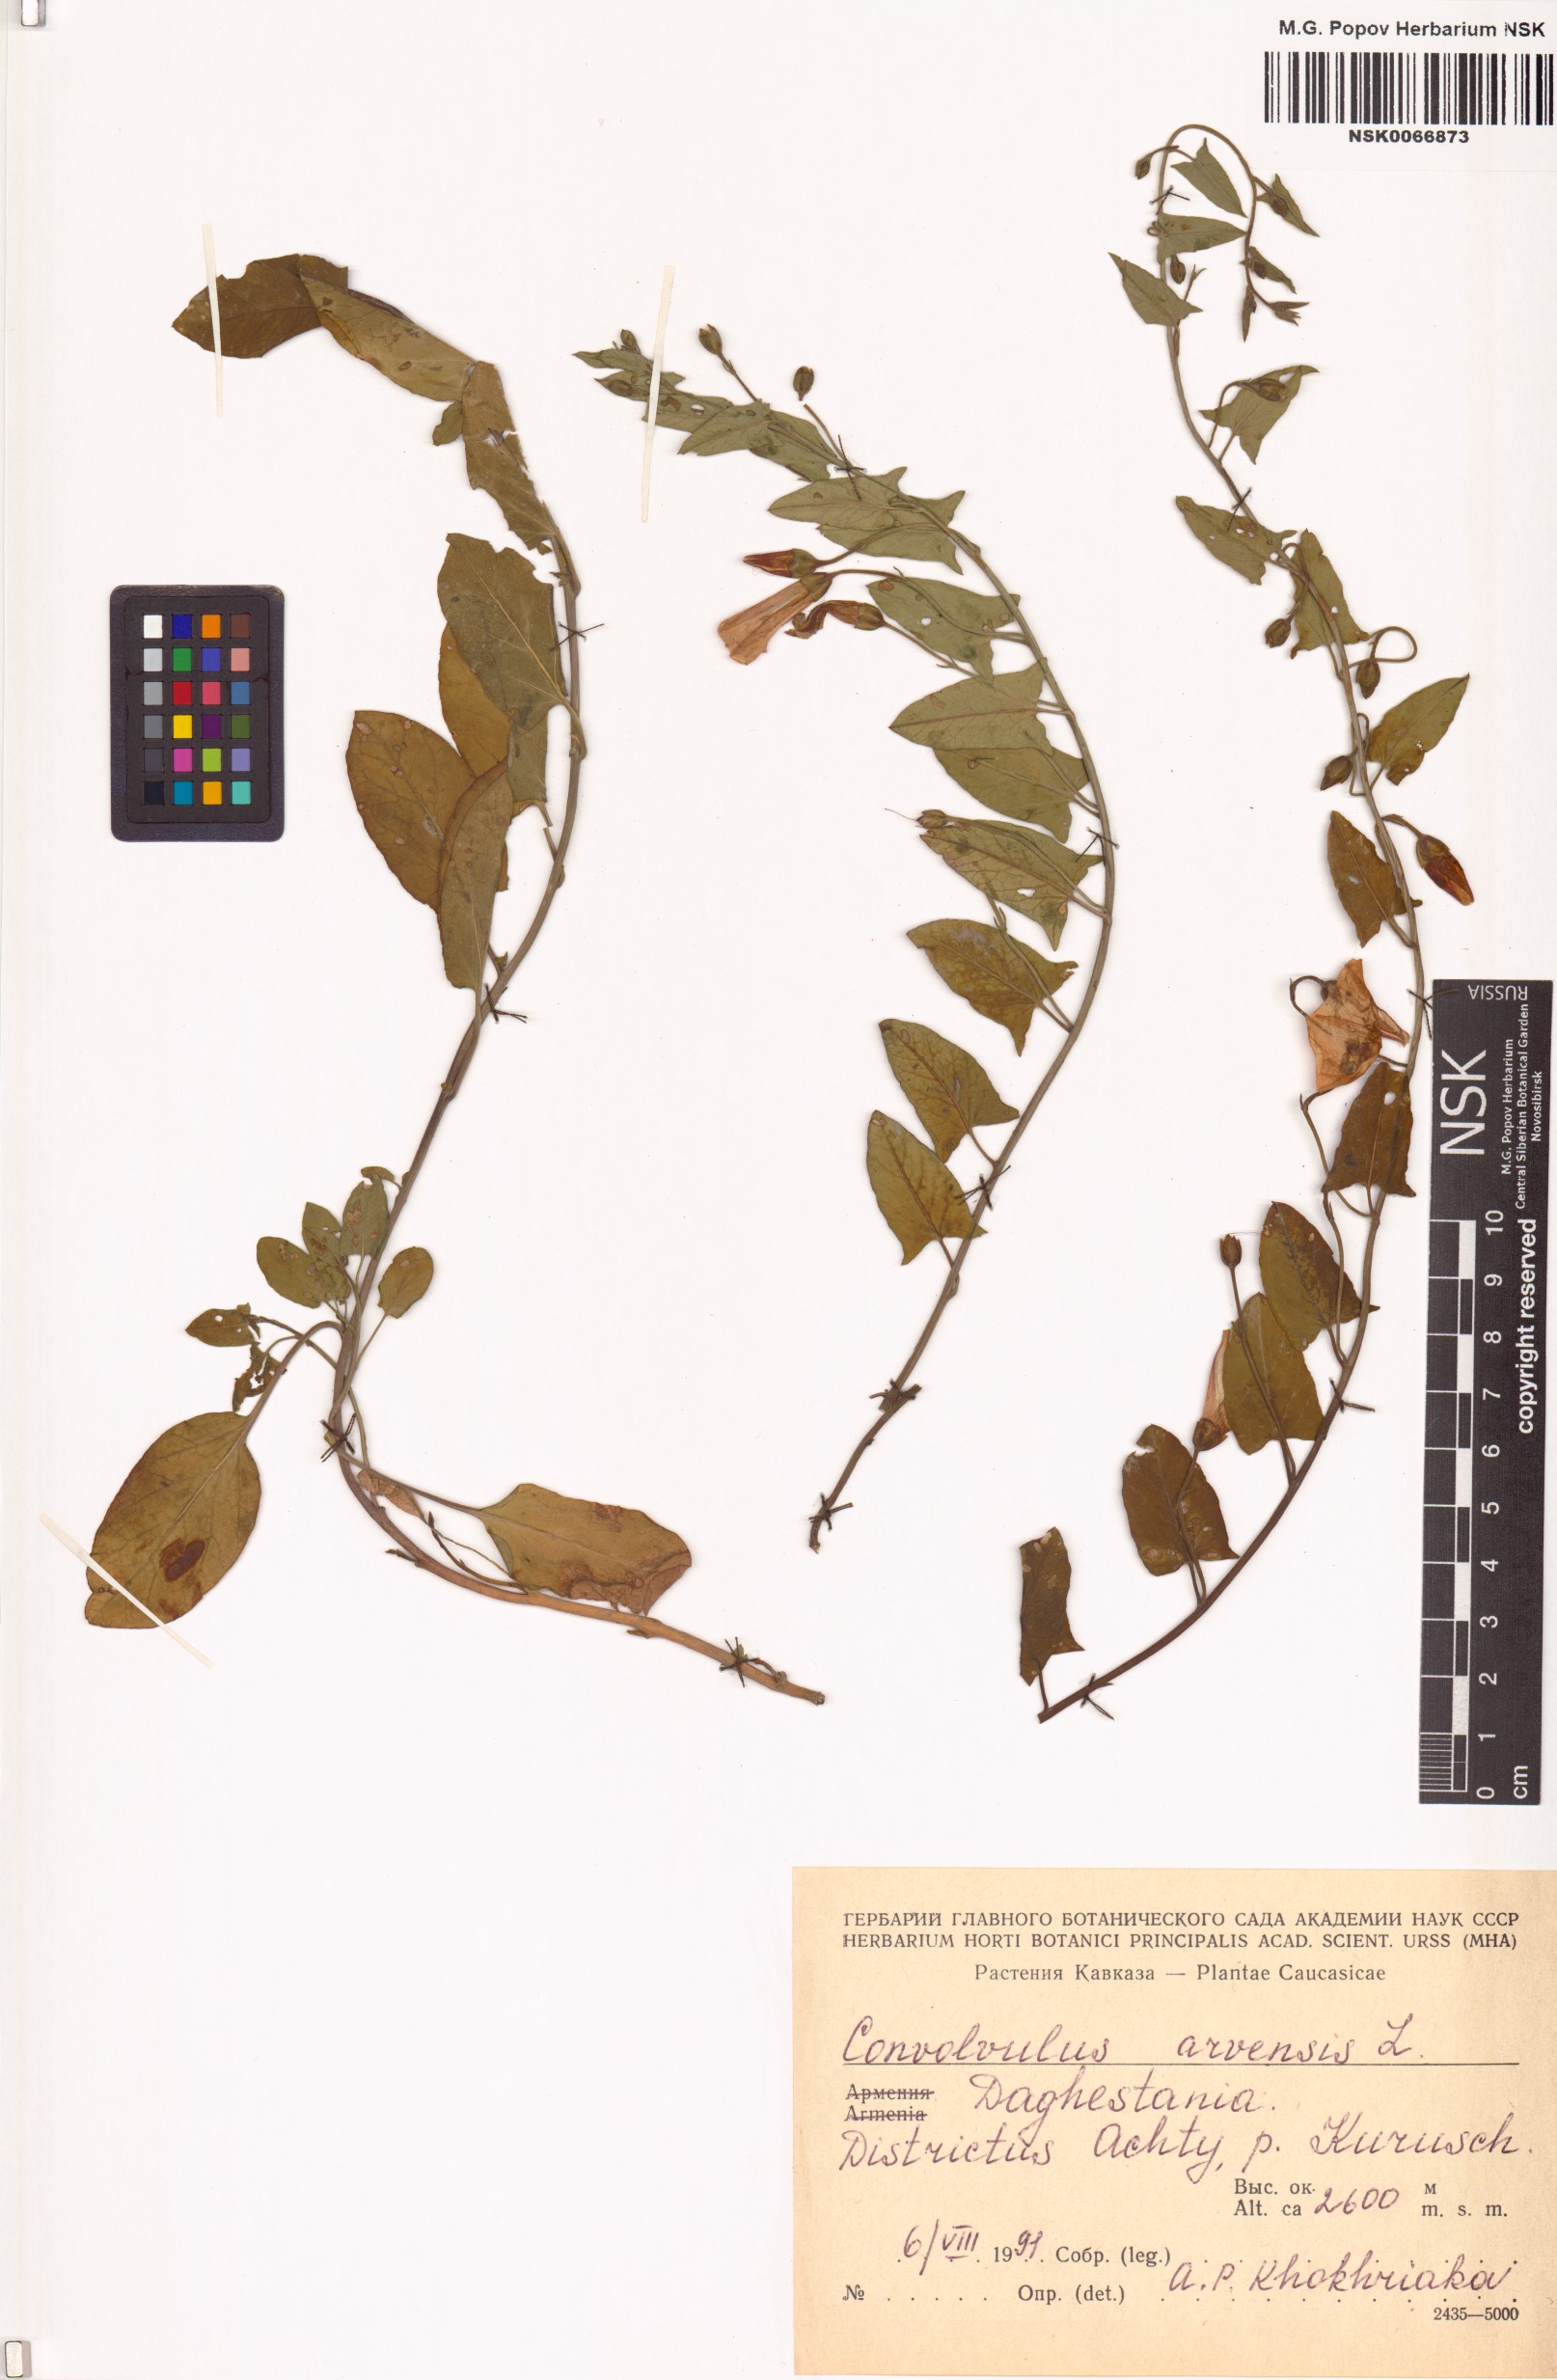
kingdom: Plantae
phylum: Tracheophyta
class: Magnoliopsida
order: Solanales
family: Convolvulaceae
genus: Convolvulus
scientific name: Convolvulus arvensis
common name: Field bindweed
